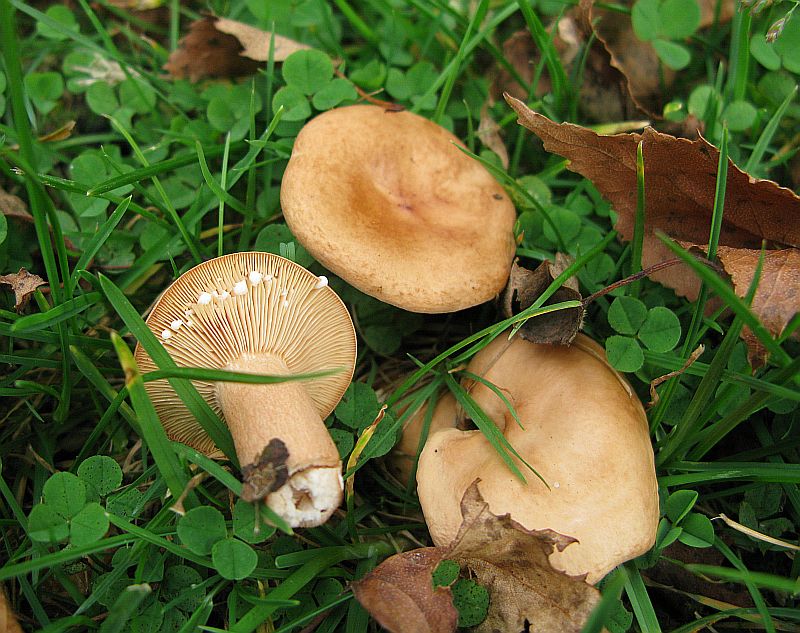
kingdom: Fungi
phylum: Basidiomycota
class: Agaricomycetes
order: Russulales
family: Russulaceae
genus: Lactarius
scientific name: Lactarius tabidus
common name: rynket mælkehat
